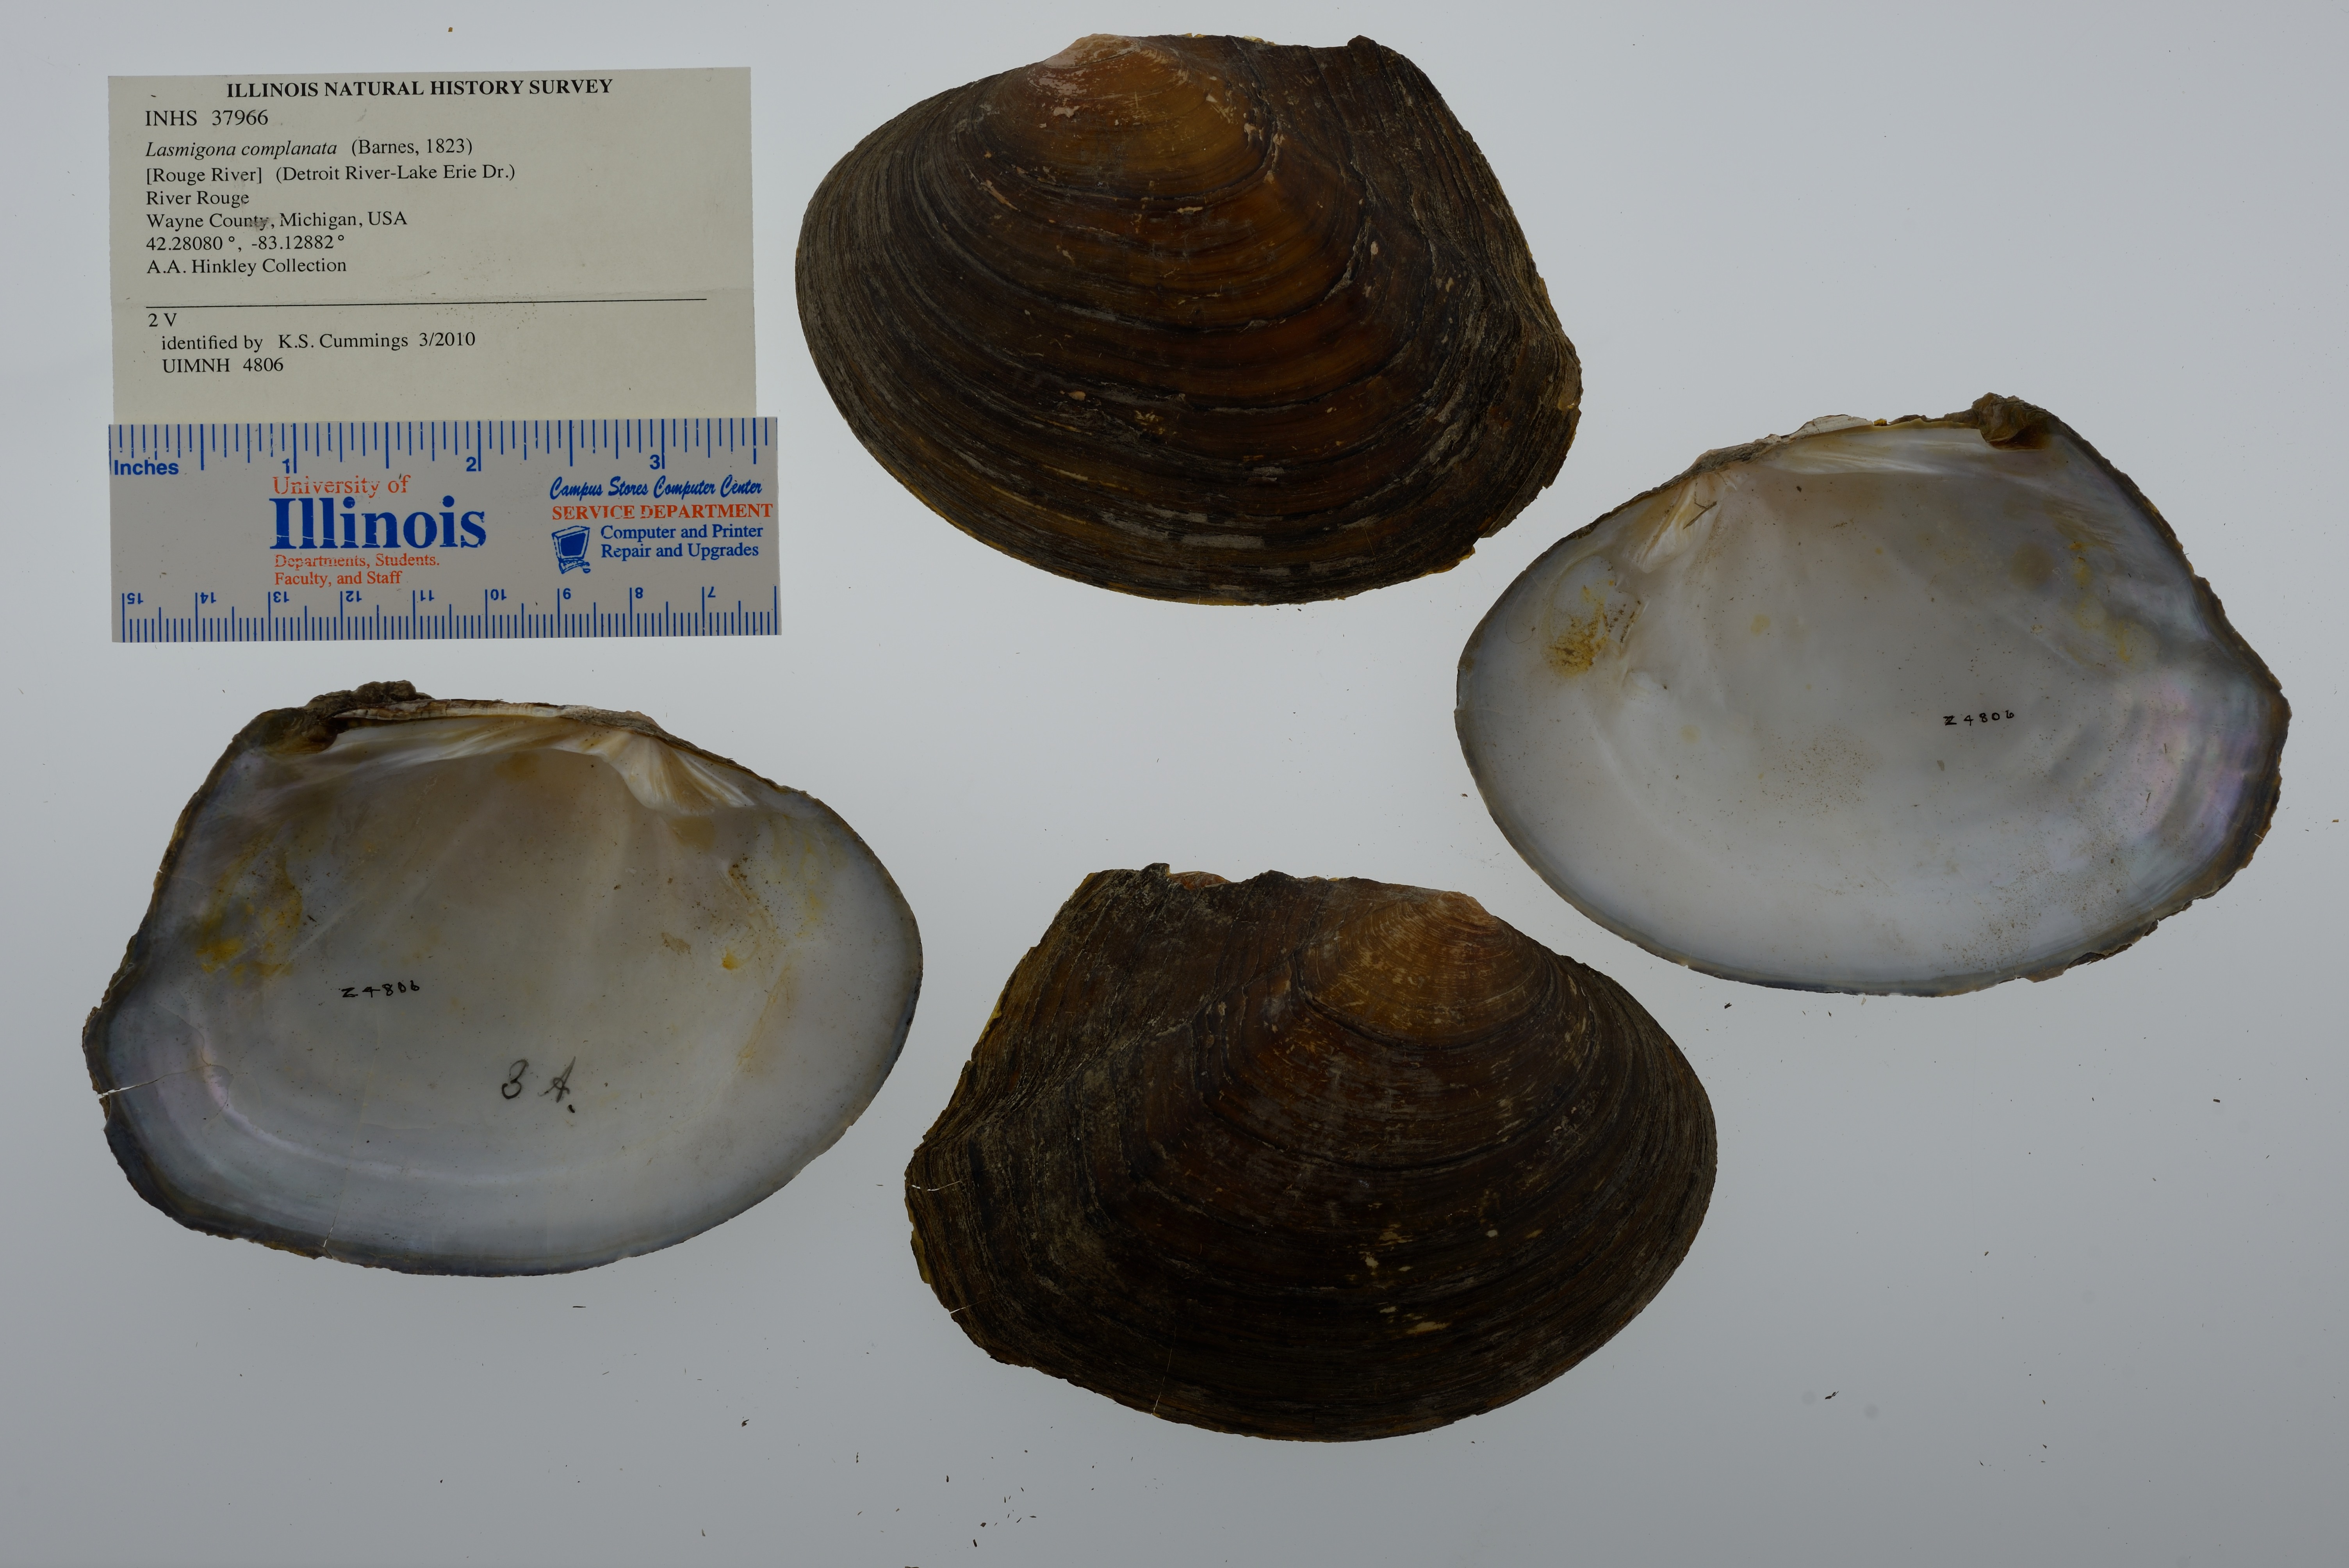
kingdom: Animalia
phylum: Mollusca
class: Bivalvia
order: Unionida
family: Unionidae
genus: Lasmigona
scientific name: Lasmigona complanata
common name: White heelsplitter
